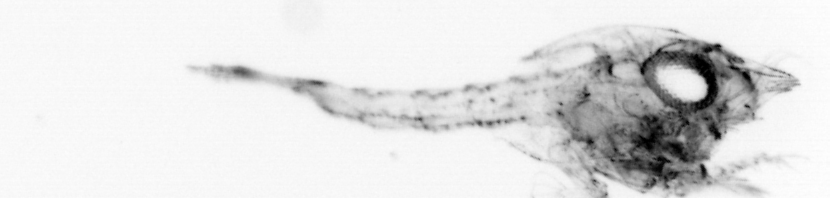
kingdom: Animalia
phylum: Arthropoda
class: Malacostraca
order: Decapoda
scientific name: Decapoda
